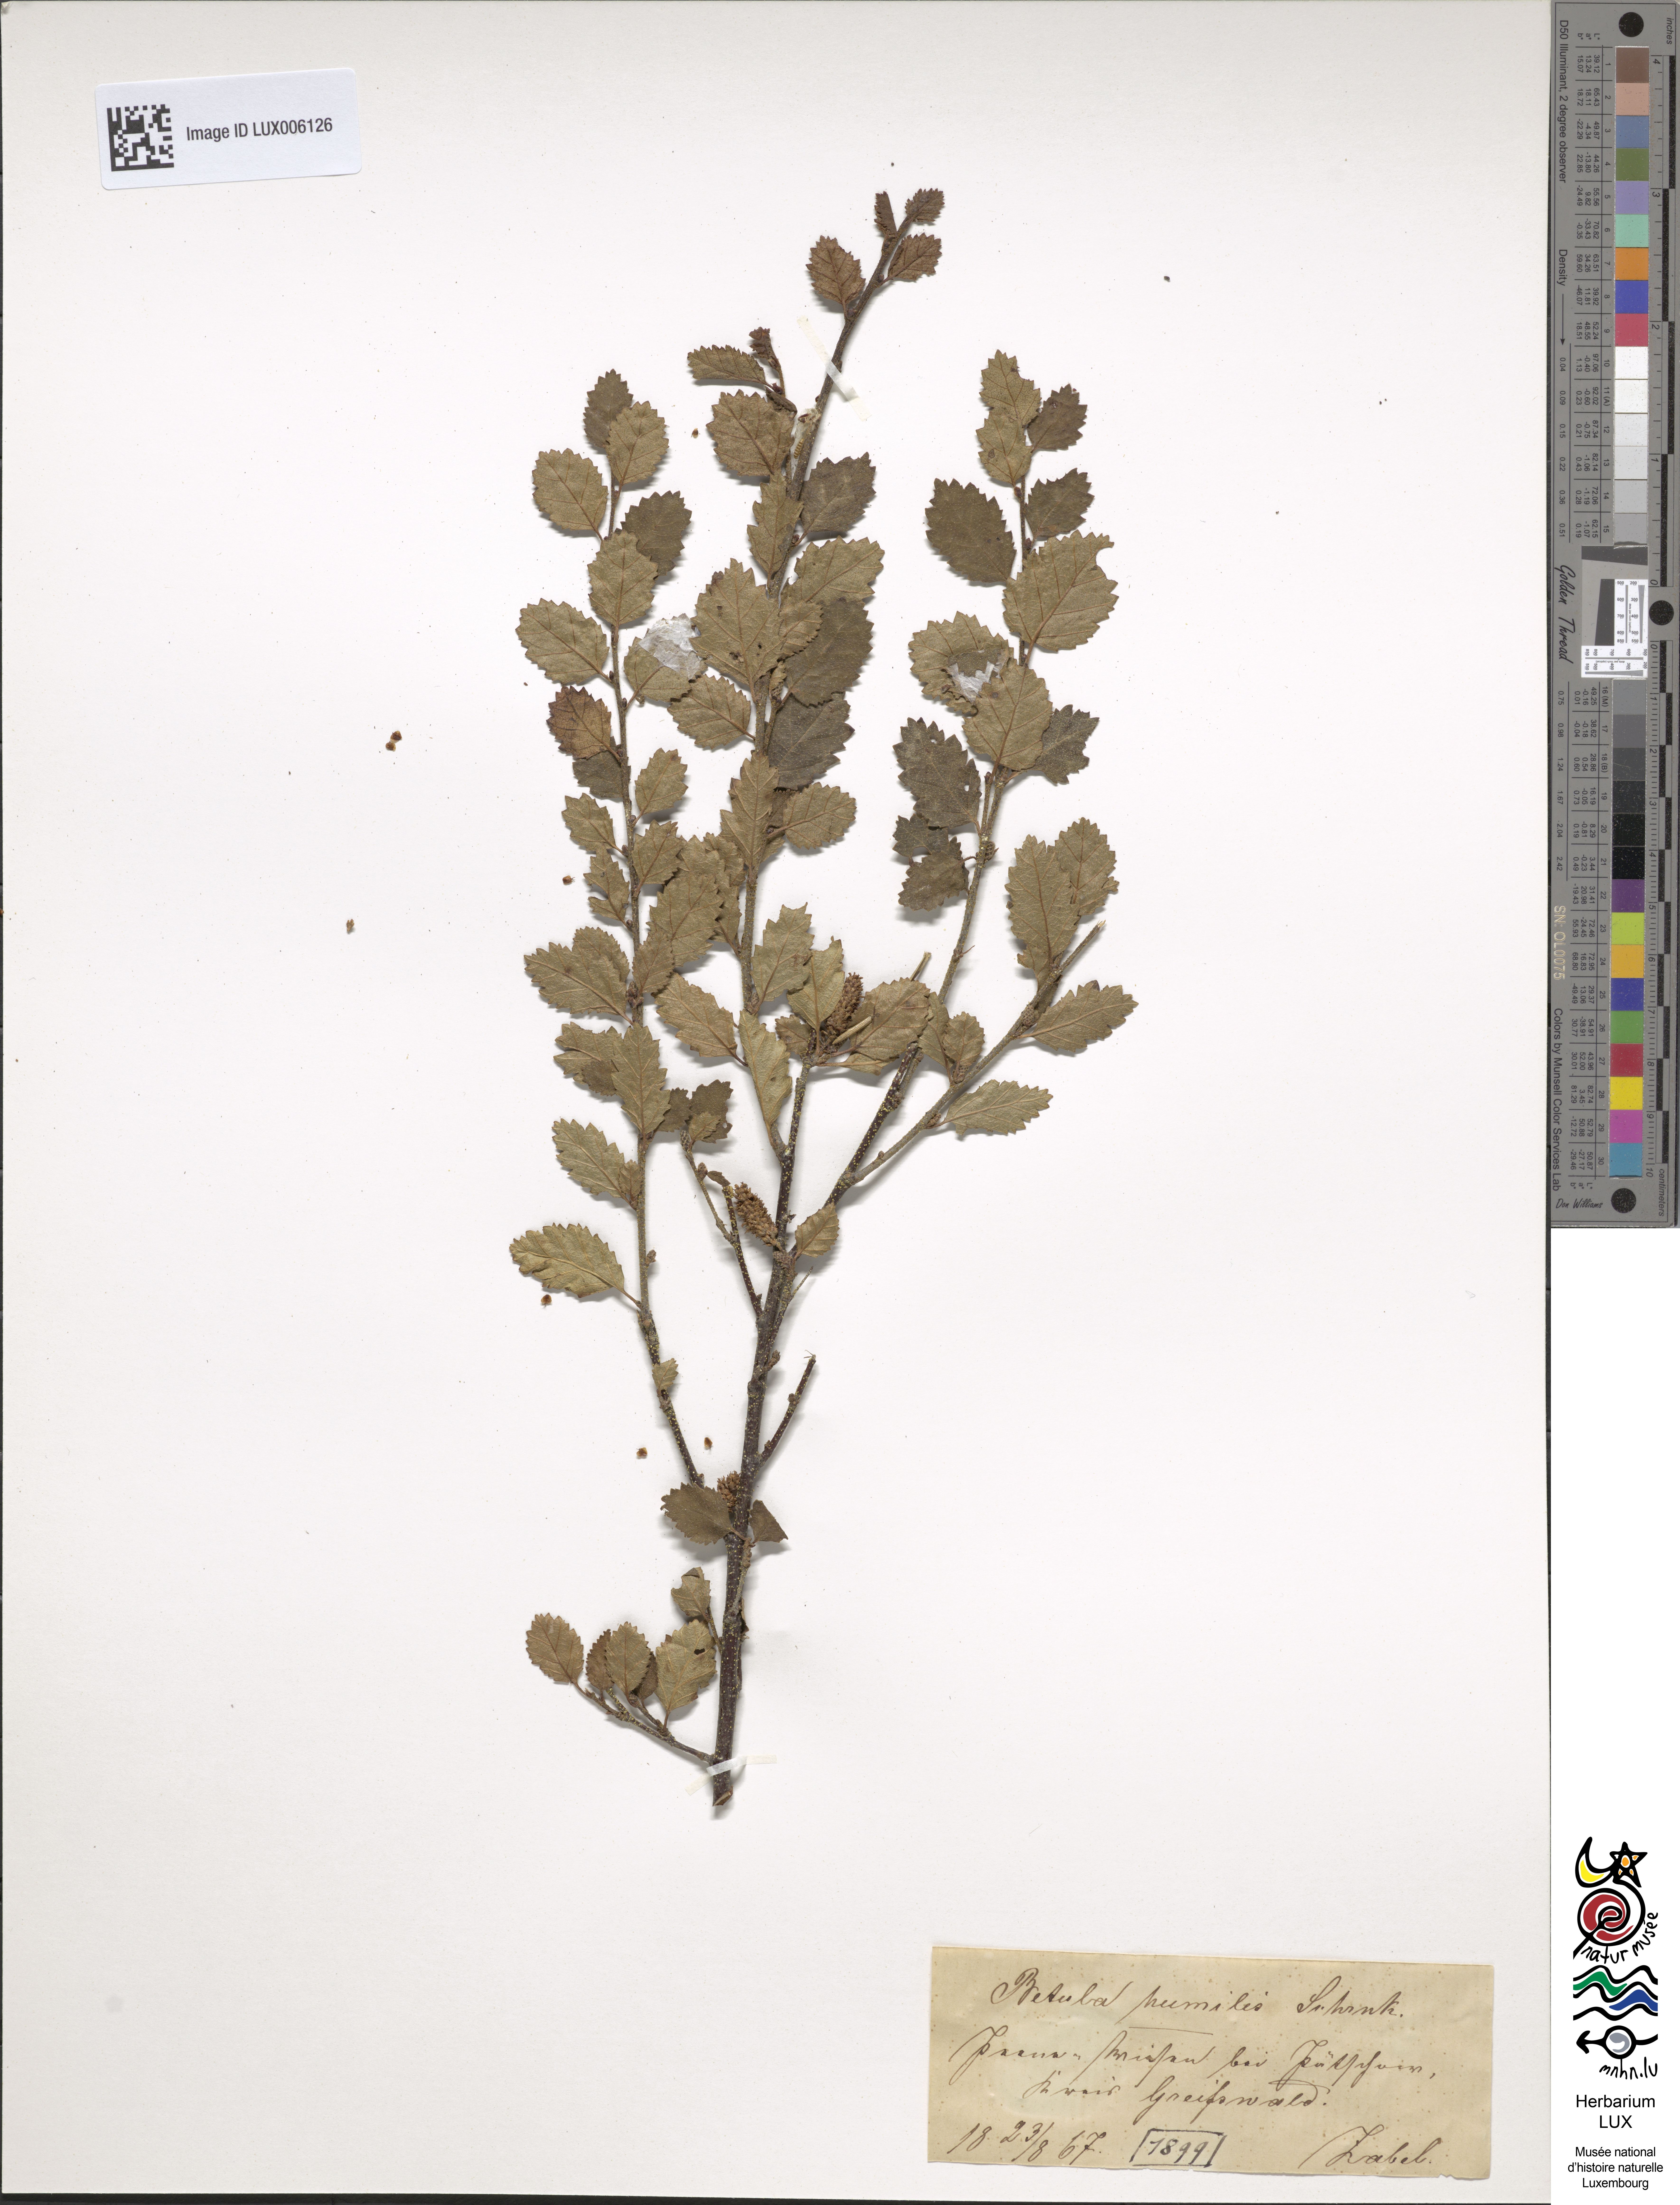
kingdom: Plantae
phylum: Tracheophyta
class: Magnoliopsida
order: Fagales
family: Betulaceae
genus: Betula
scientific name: Betula humilis
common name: Shrubby birch
